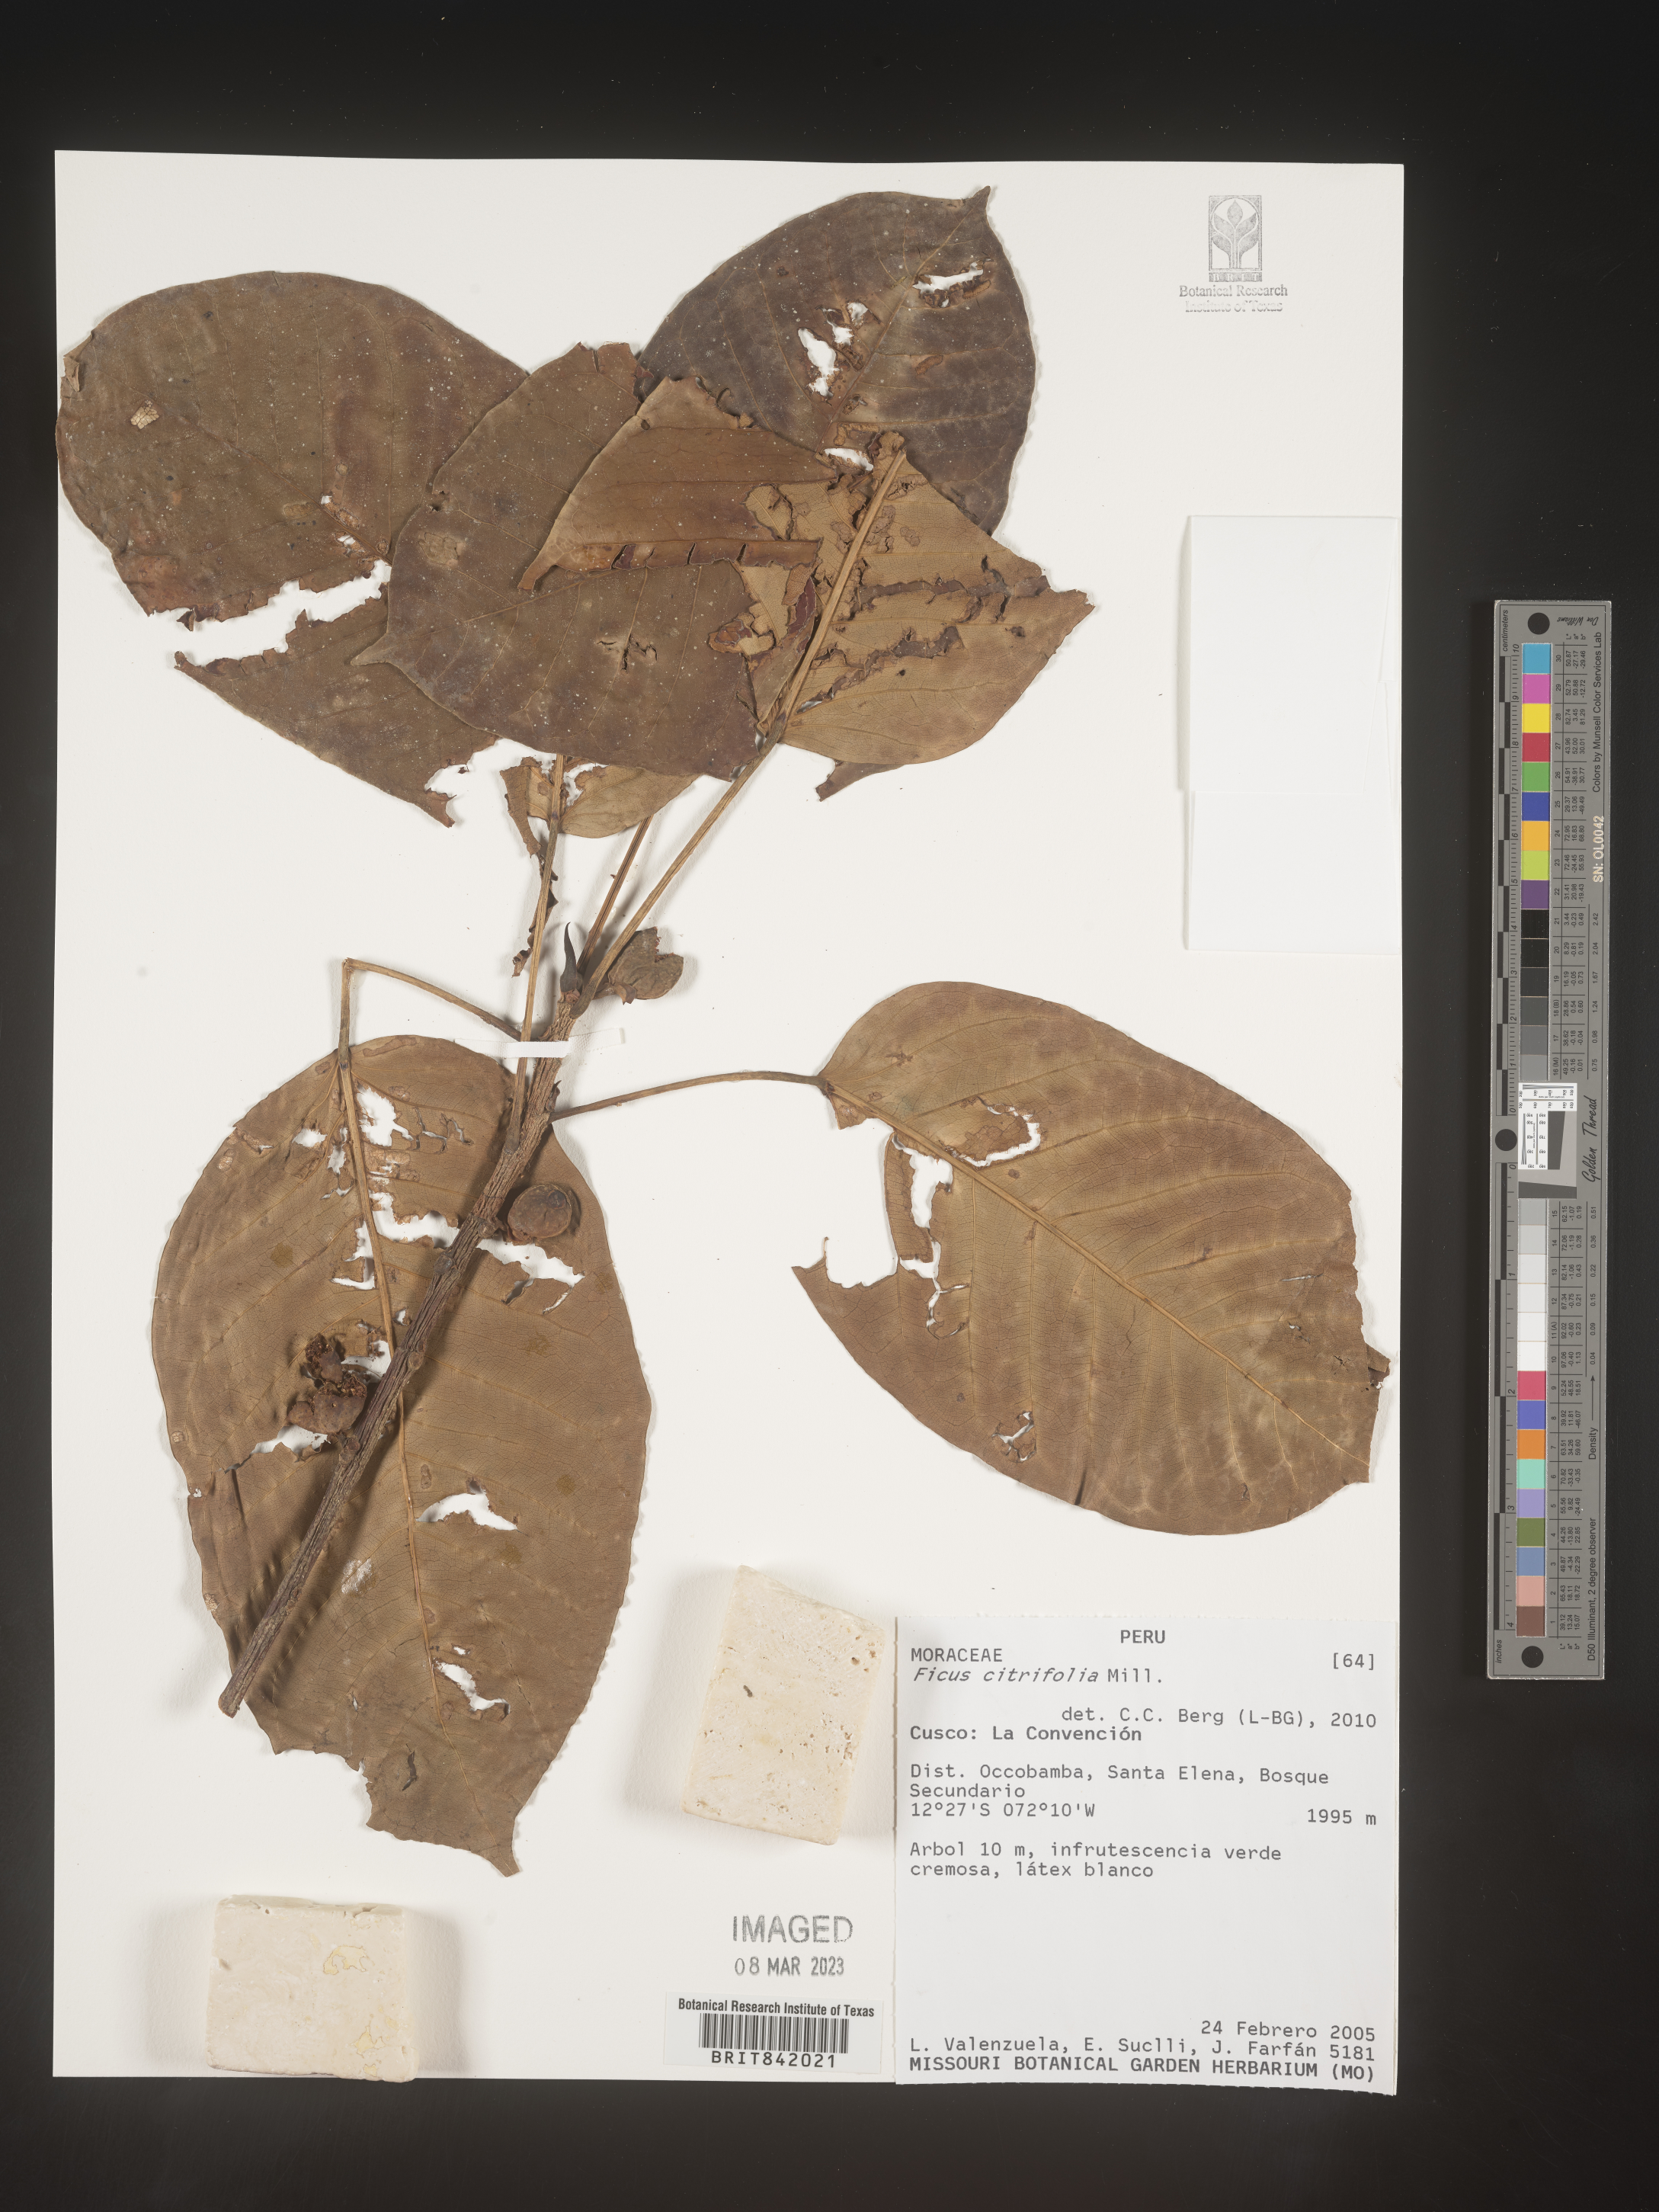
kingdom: Plantae
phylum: Tracheophyta
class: Magnoliopsida
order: Rosales
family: Moraceae
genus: Ficus
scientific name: Ficus citrifolia
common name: Strangler fig
